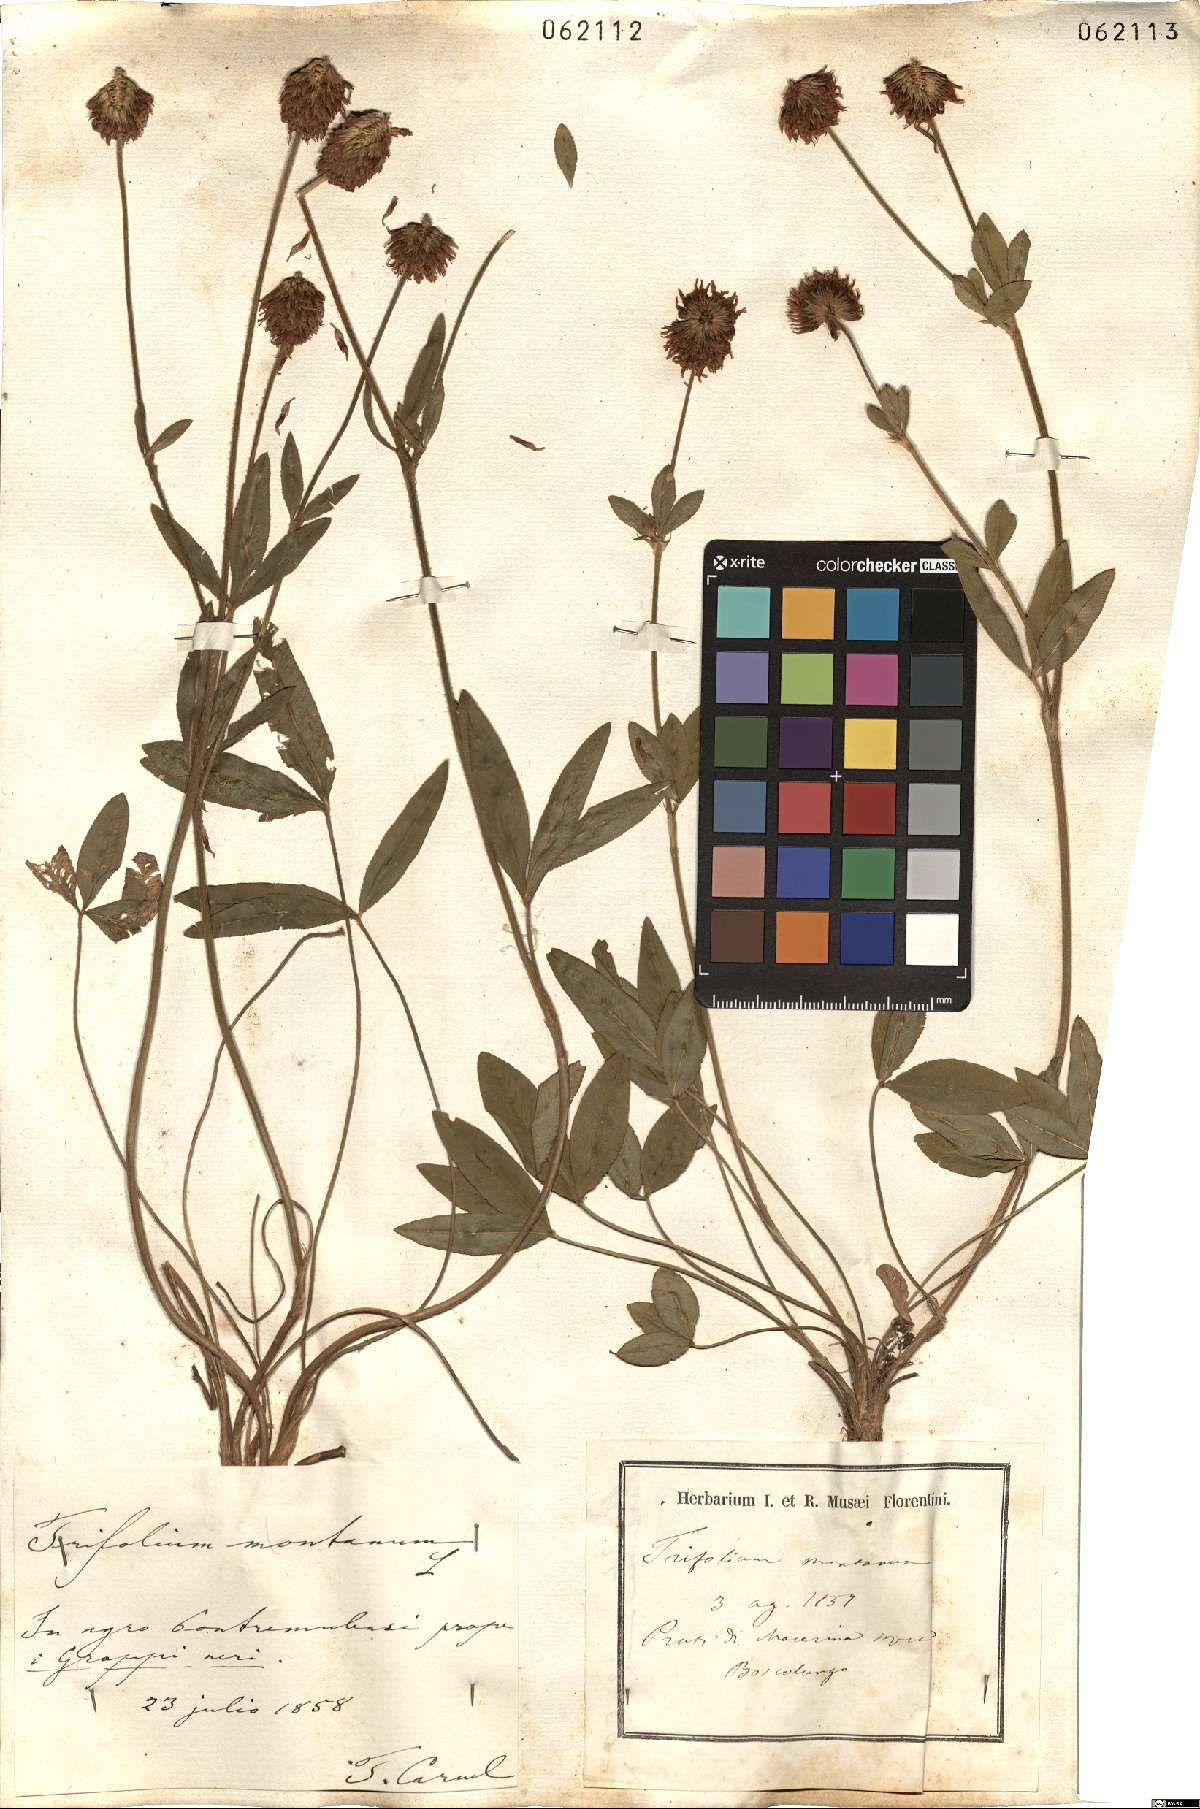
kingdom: Plantae
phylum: Tracheophyta
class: Magnoliopsida
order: Fabales
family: Fabaceae
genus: Trifolium
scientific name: Trifolium montanum
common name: Mountain clover
